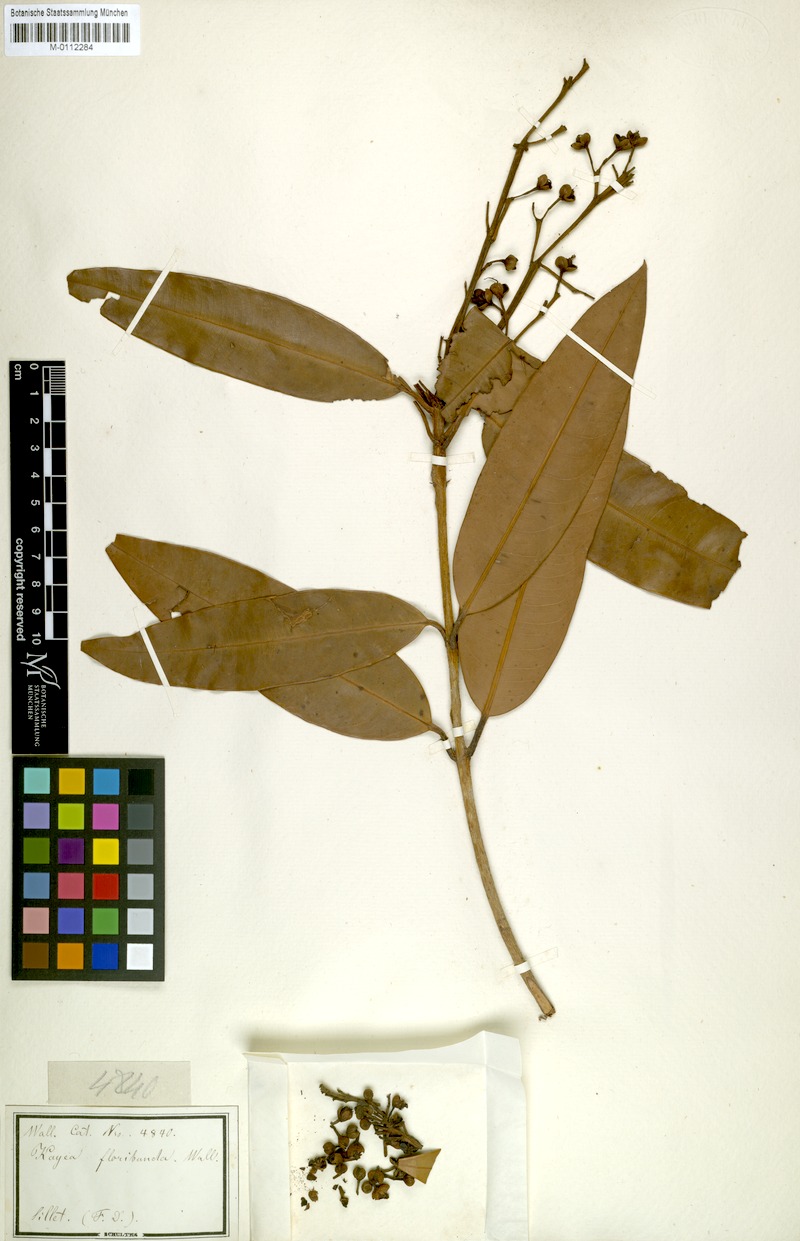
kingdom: Plantae
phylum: Tracheophyta
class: Magnoliopsida
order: Malpighiales
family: Calophyllaceae
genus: Kayea
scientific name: Kayea floribunda
